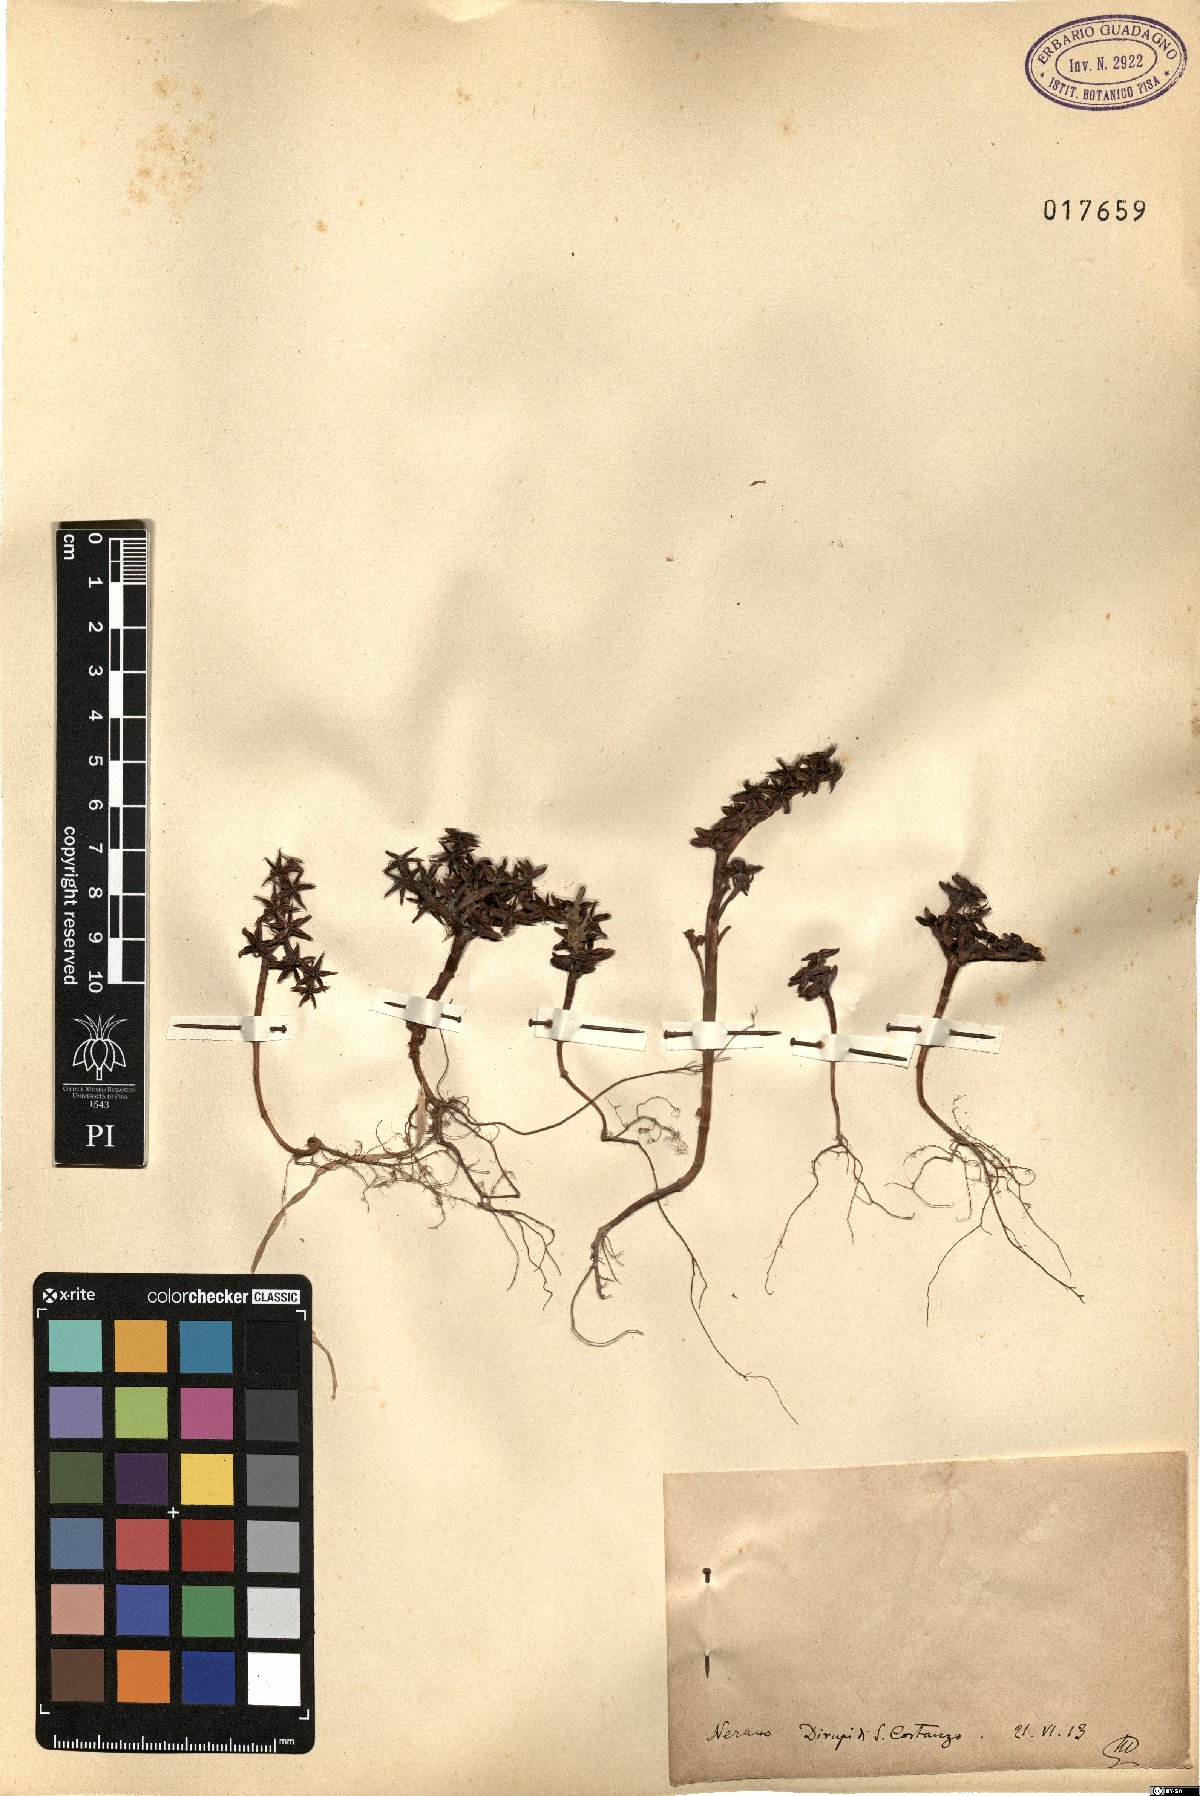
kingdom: Plantae
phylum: Tracheophyta
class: Magnoliopsida
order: Saxifragales
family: Crassulaceae
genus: Sedum
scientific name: Sedum
